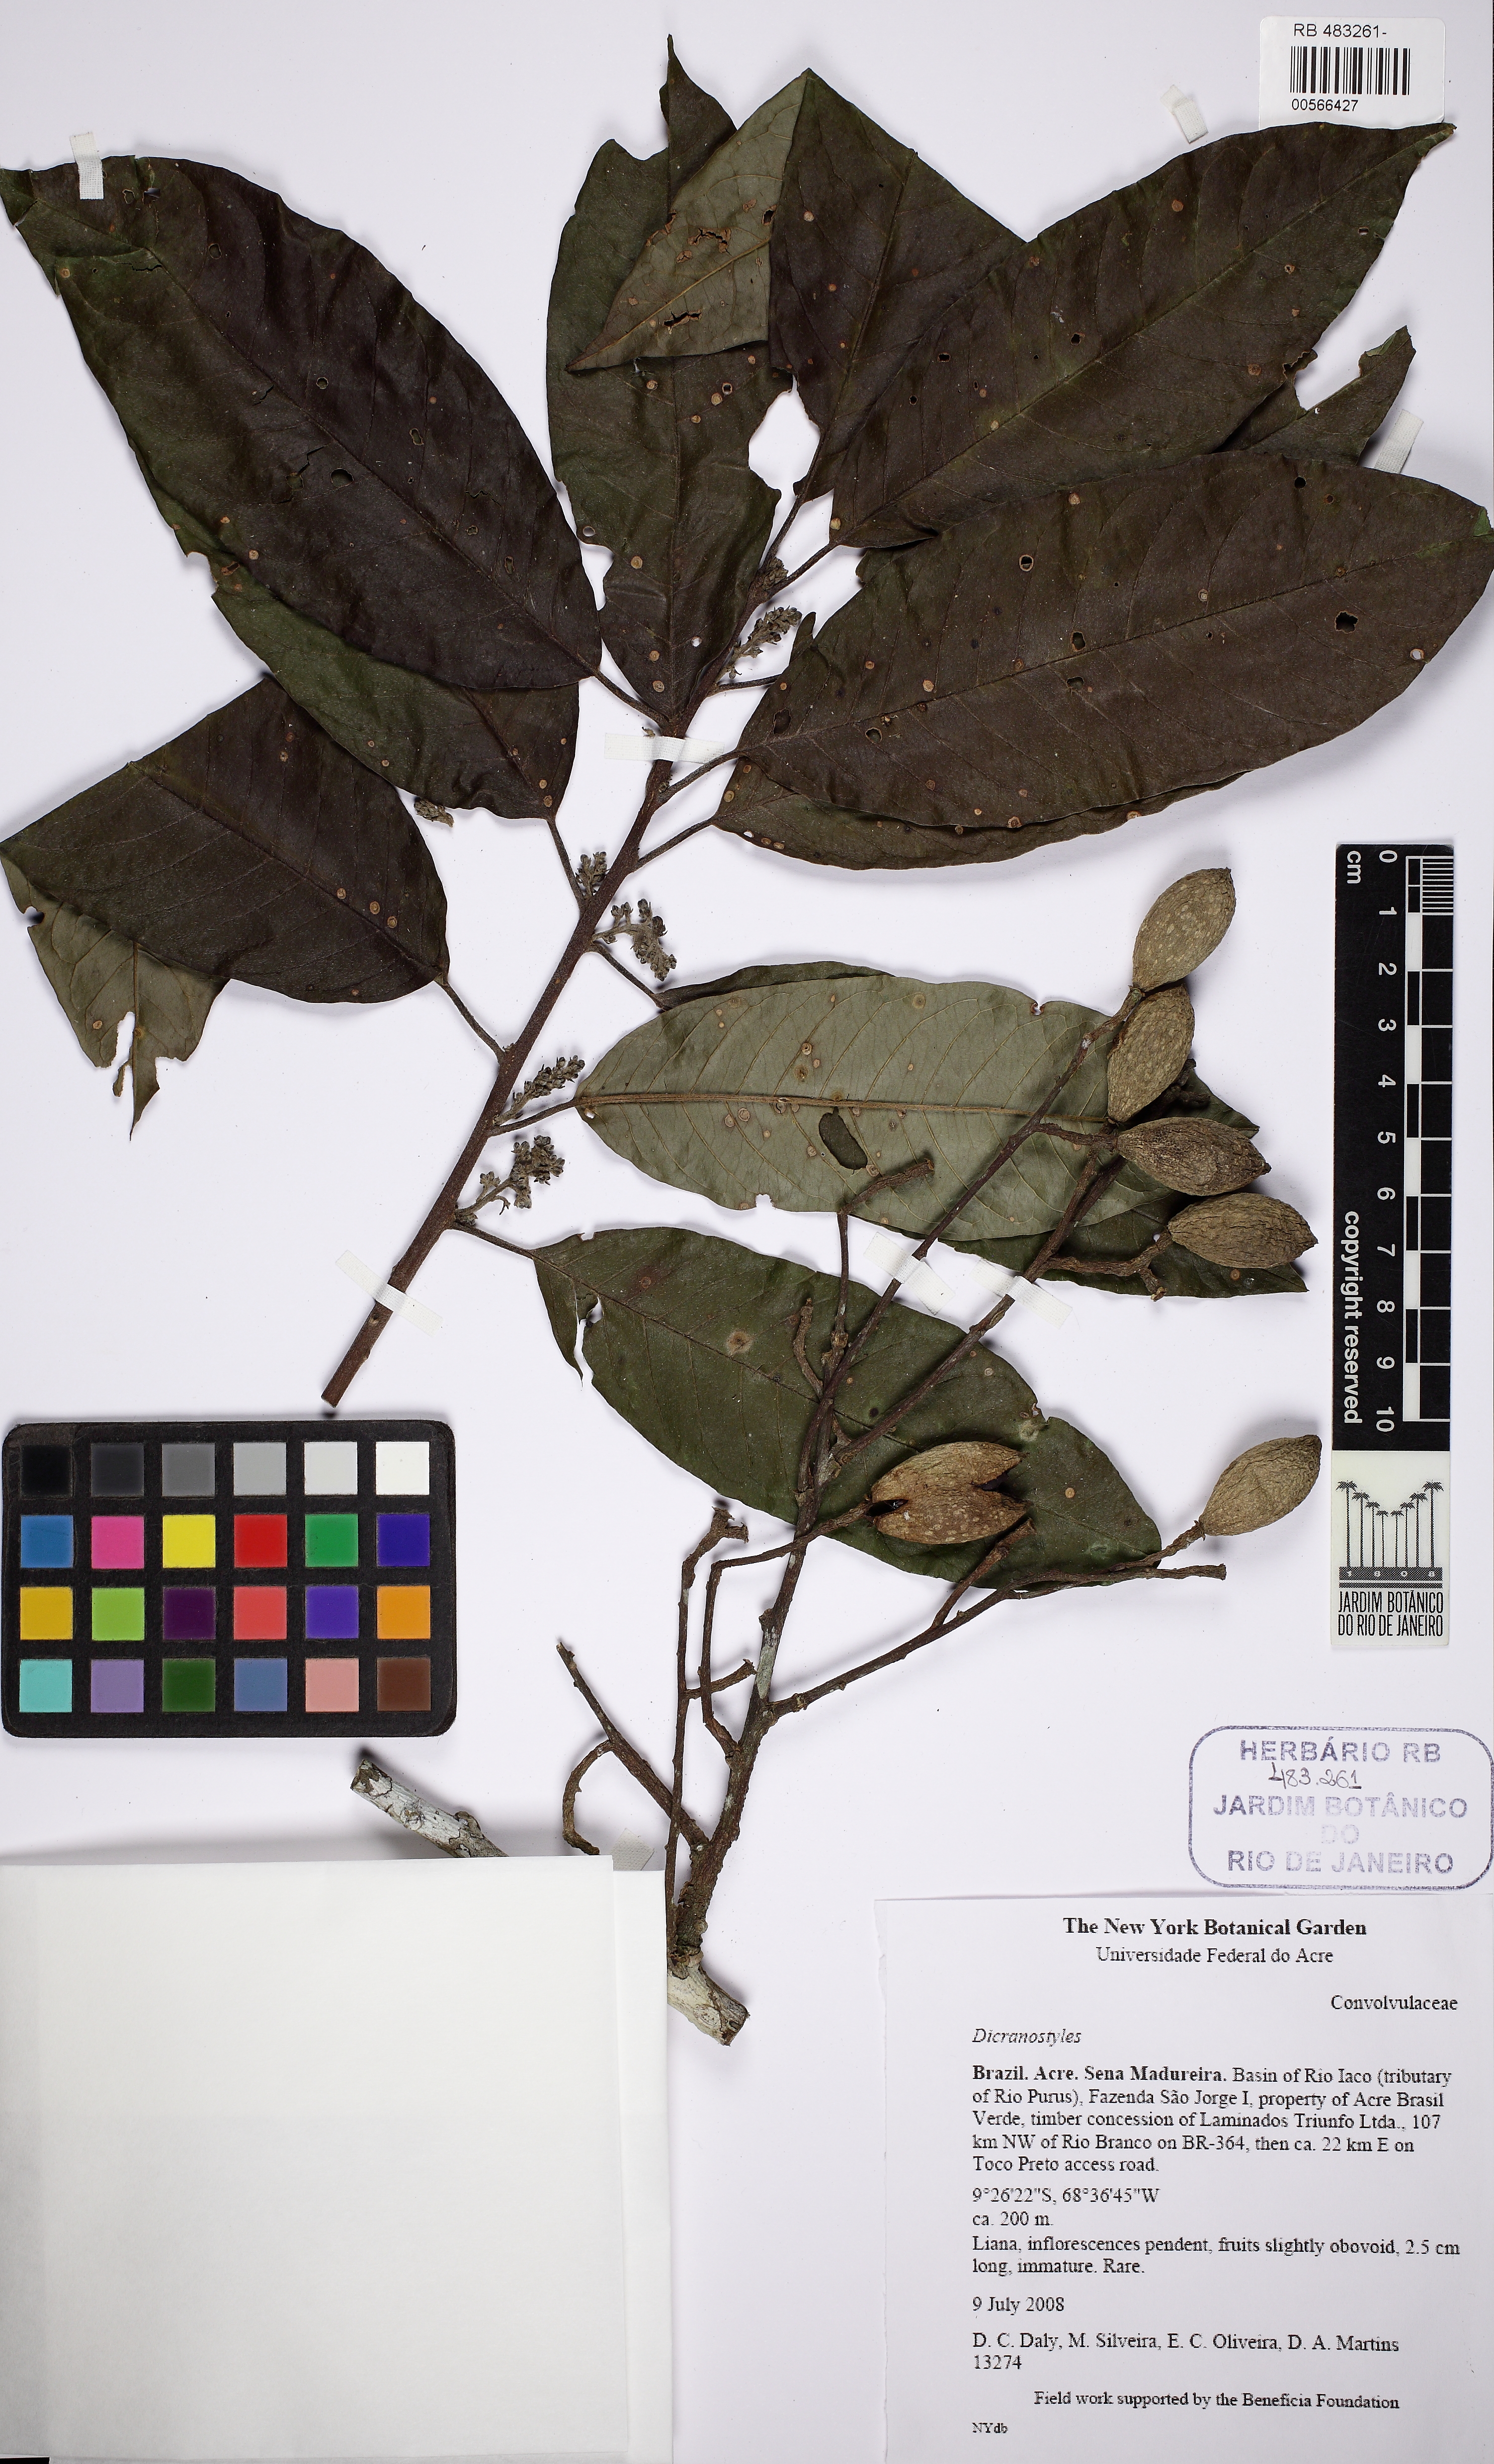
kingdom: Plantae
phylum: Tracheophyta
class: Magnoliopsida
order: Solanales
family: Convolvulaceae
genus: Dicranostyles
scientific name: Dicranostyles mildbraediana
